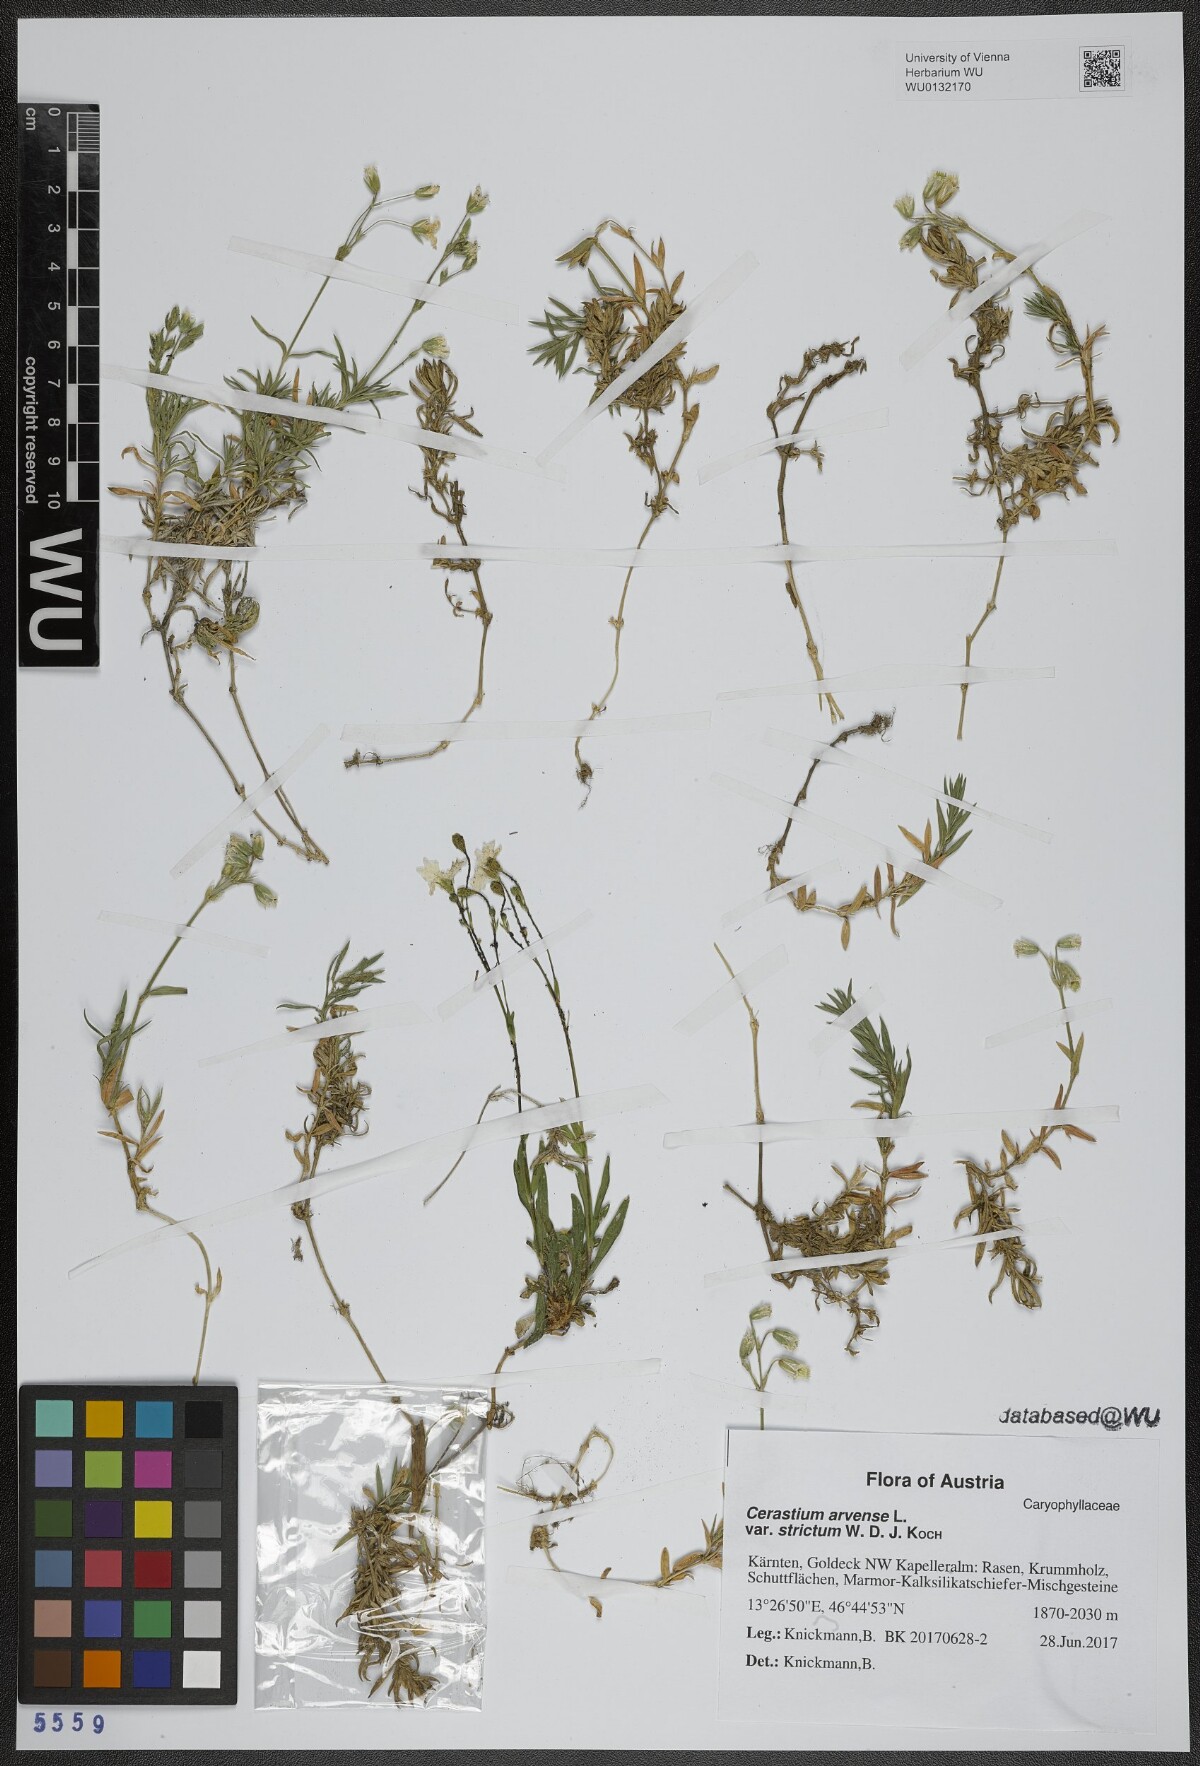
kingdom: Plantae
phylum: Tracheophyta
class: Magnoliopsida
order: Caryophyllales
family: Caryophyllaceae
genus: Cerastium
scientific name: Cerastium elongatum
